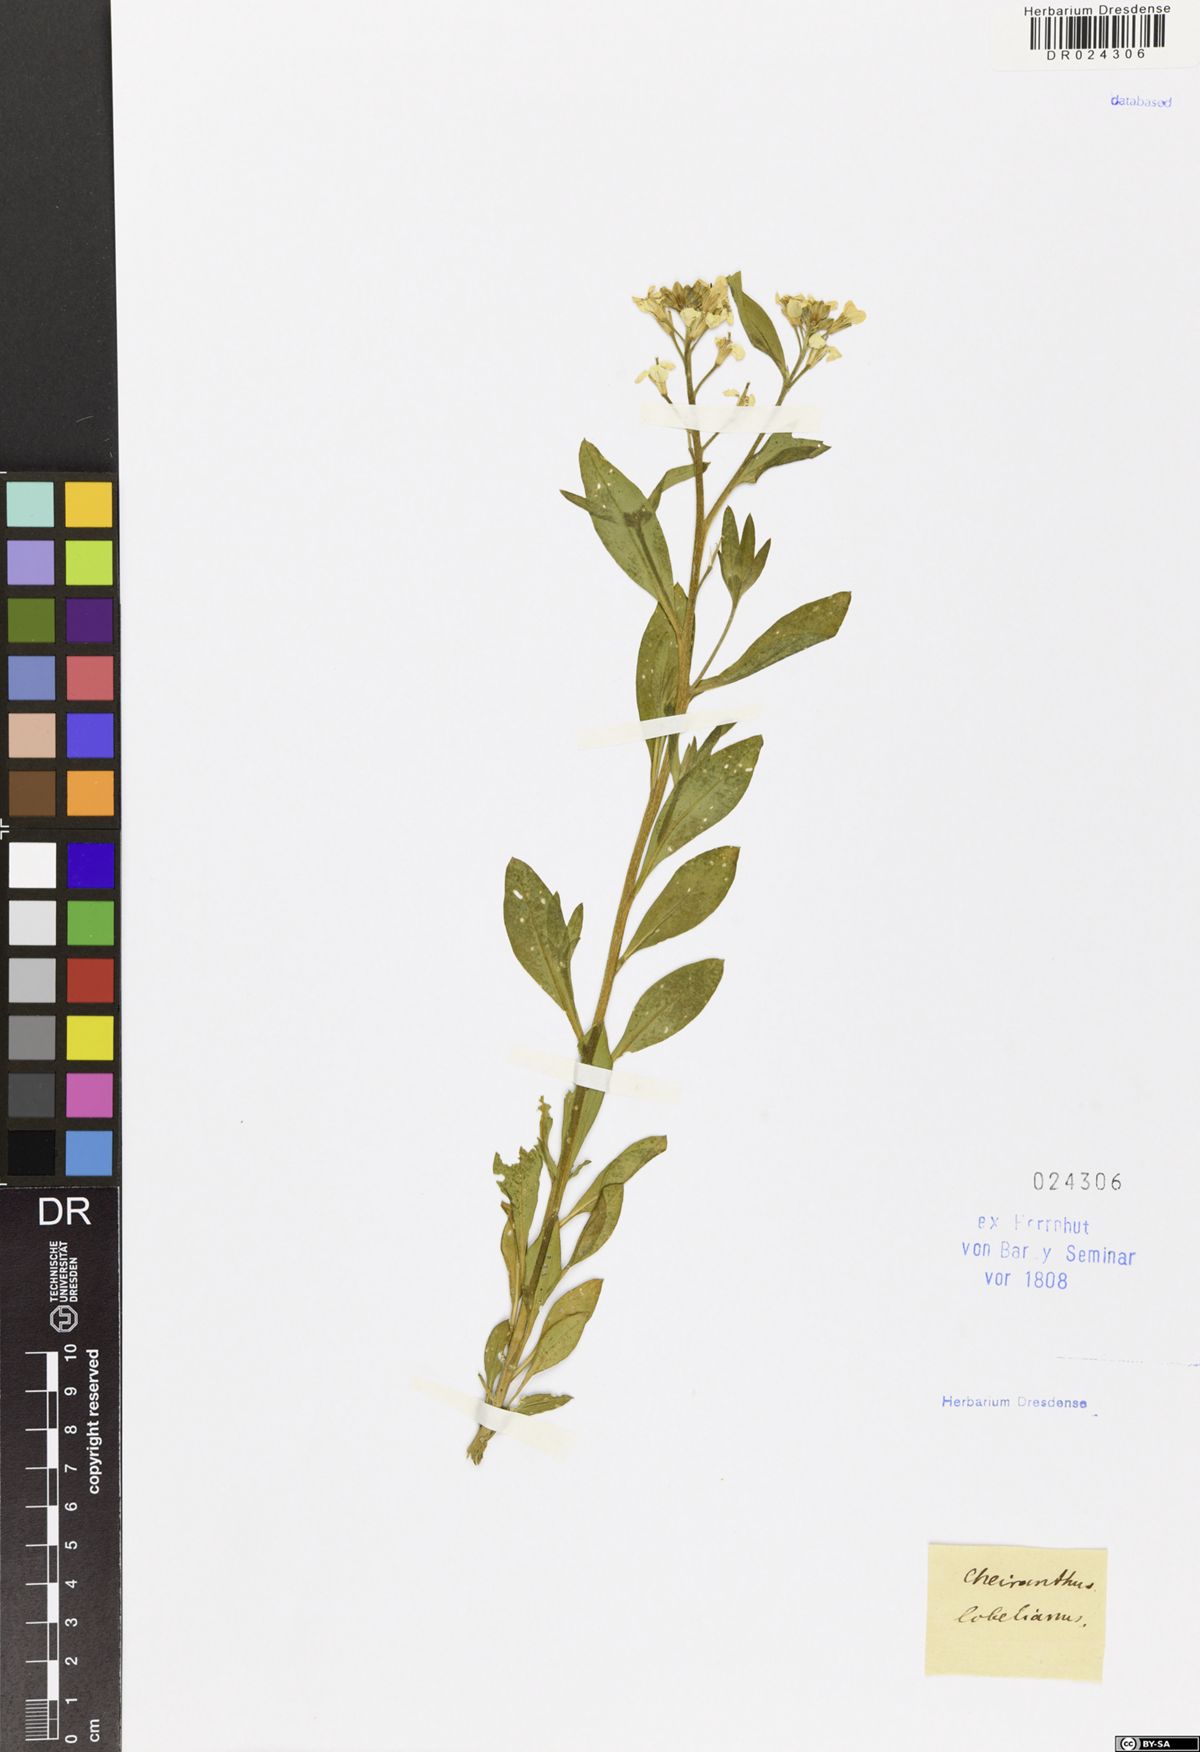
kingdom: Plantae
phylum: Tracheophyta
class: Magnoliopsida
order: Brassicales
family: Brassicaceae
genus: Erysimum
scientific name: Erysimum
